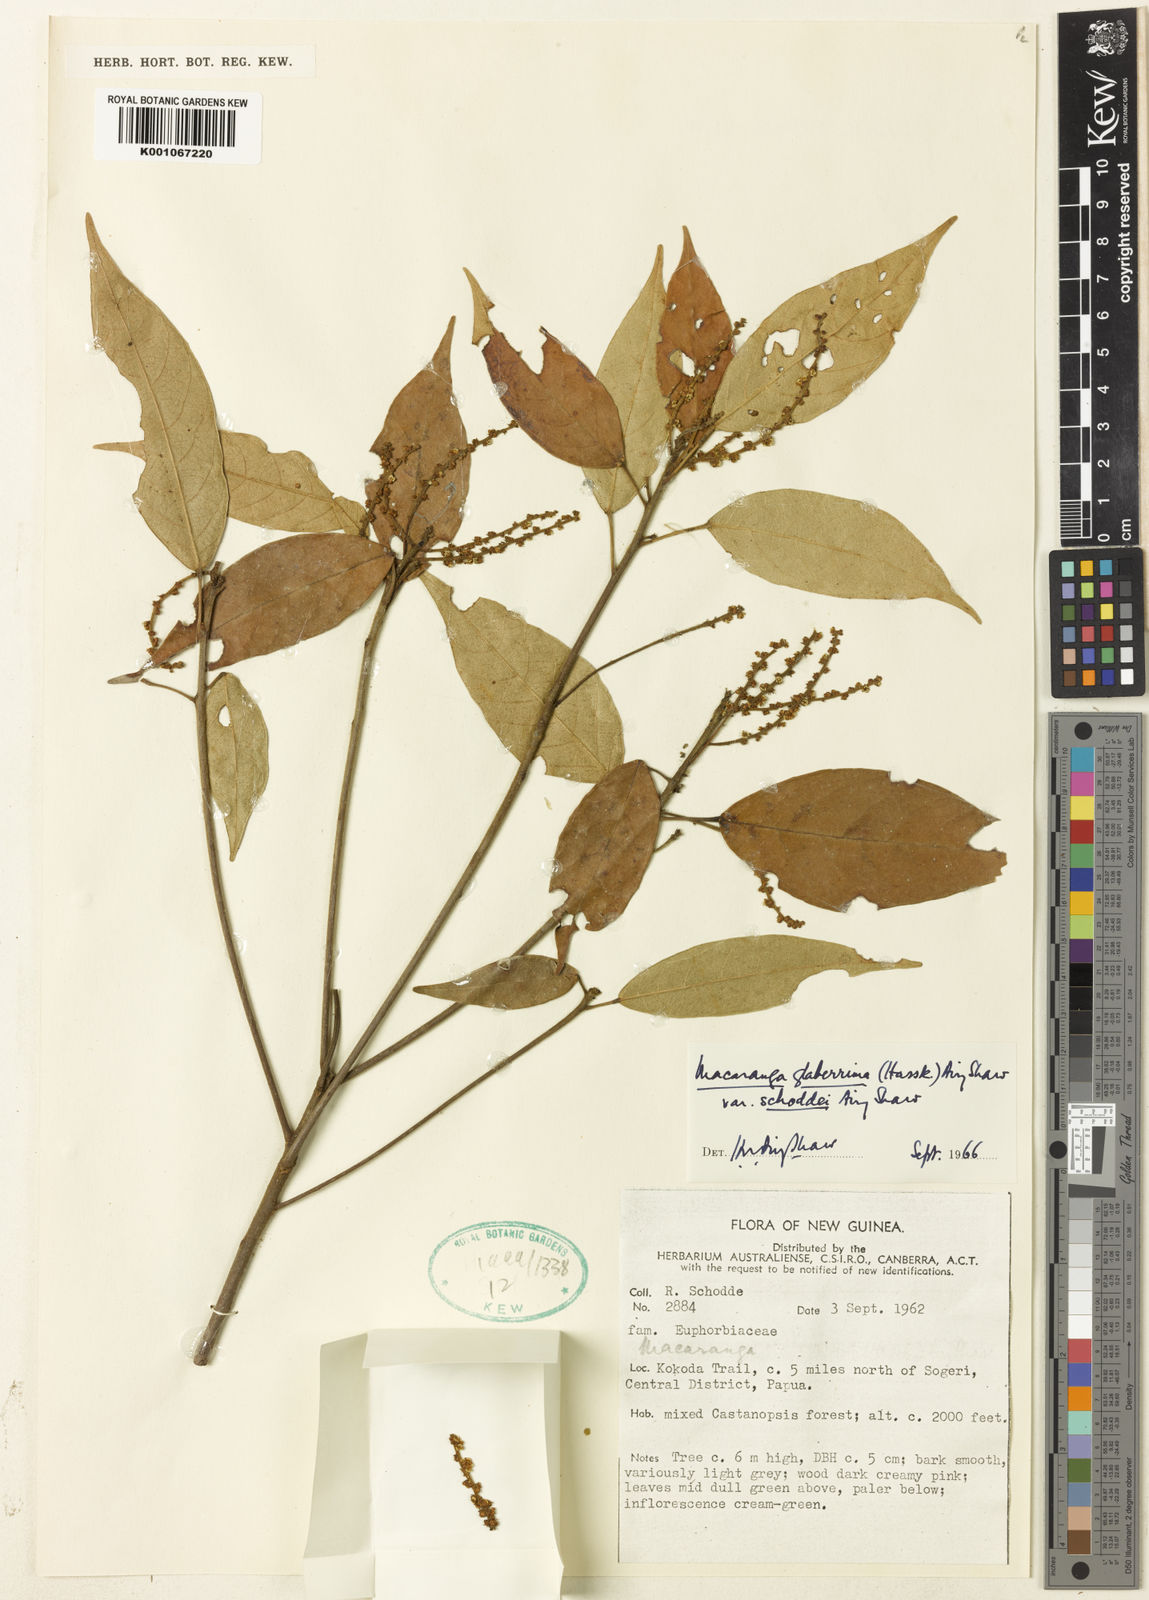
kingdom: Plantae
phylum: Tracheophyta
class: Magnoliopsida
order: Malpighiales
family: Euphorbiaceae
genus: Macaranga
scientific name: Macaranga glaberrima
